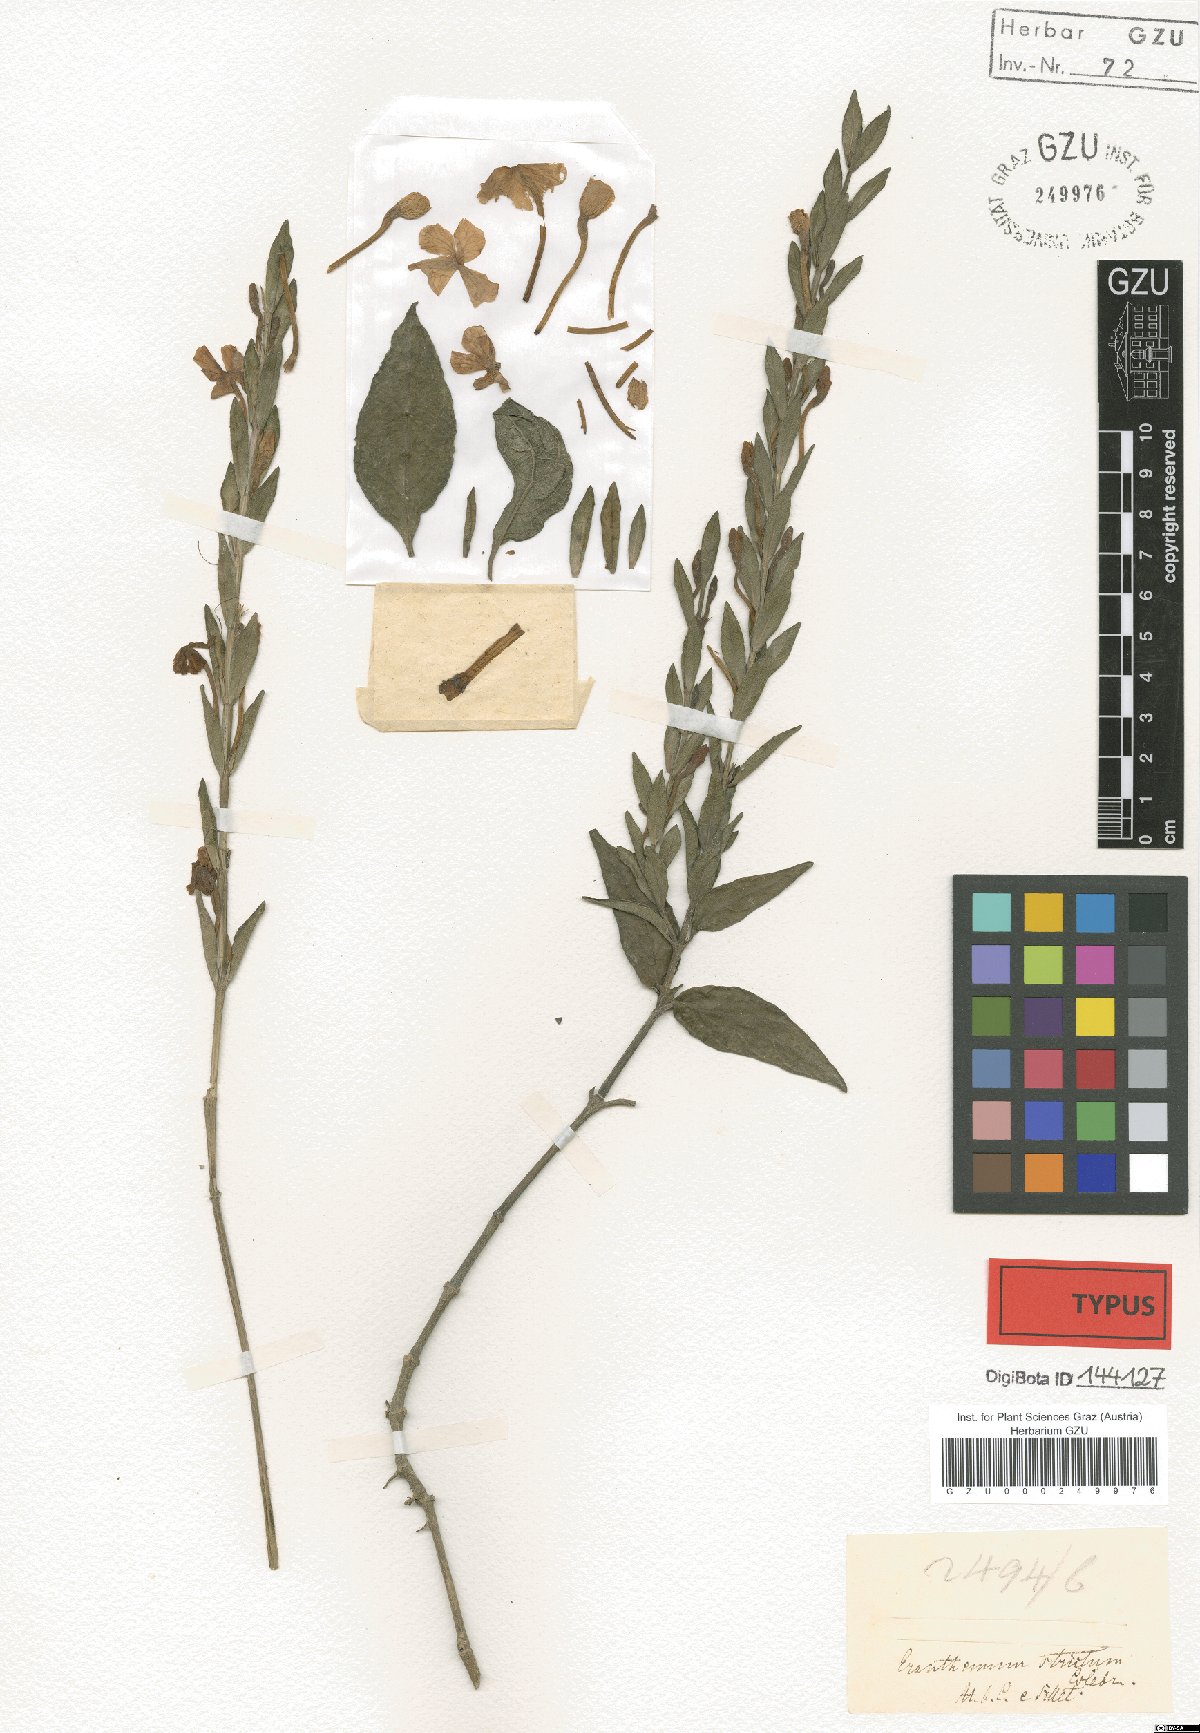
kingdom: Plantae
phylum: Tracheophyta
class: Magnoliopsida
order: Lamiales
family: Acanthaceae
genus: Eranthemum
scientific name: Eranthemum strictum
